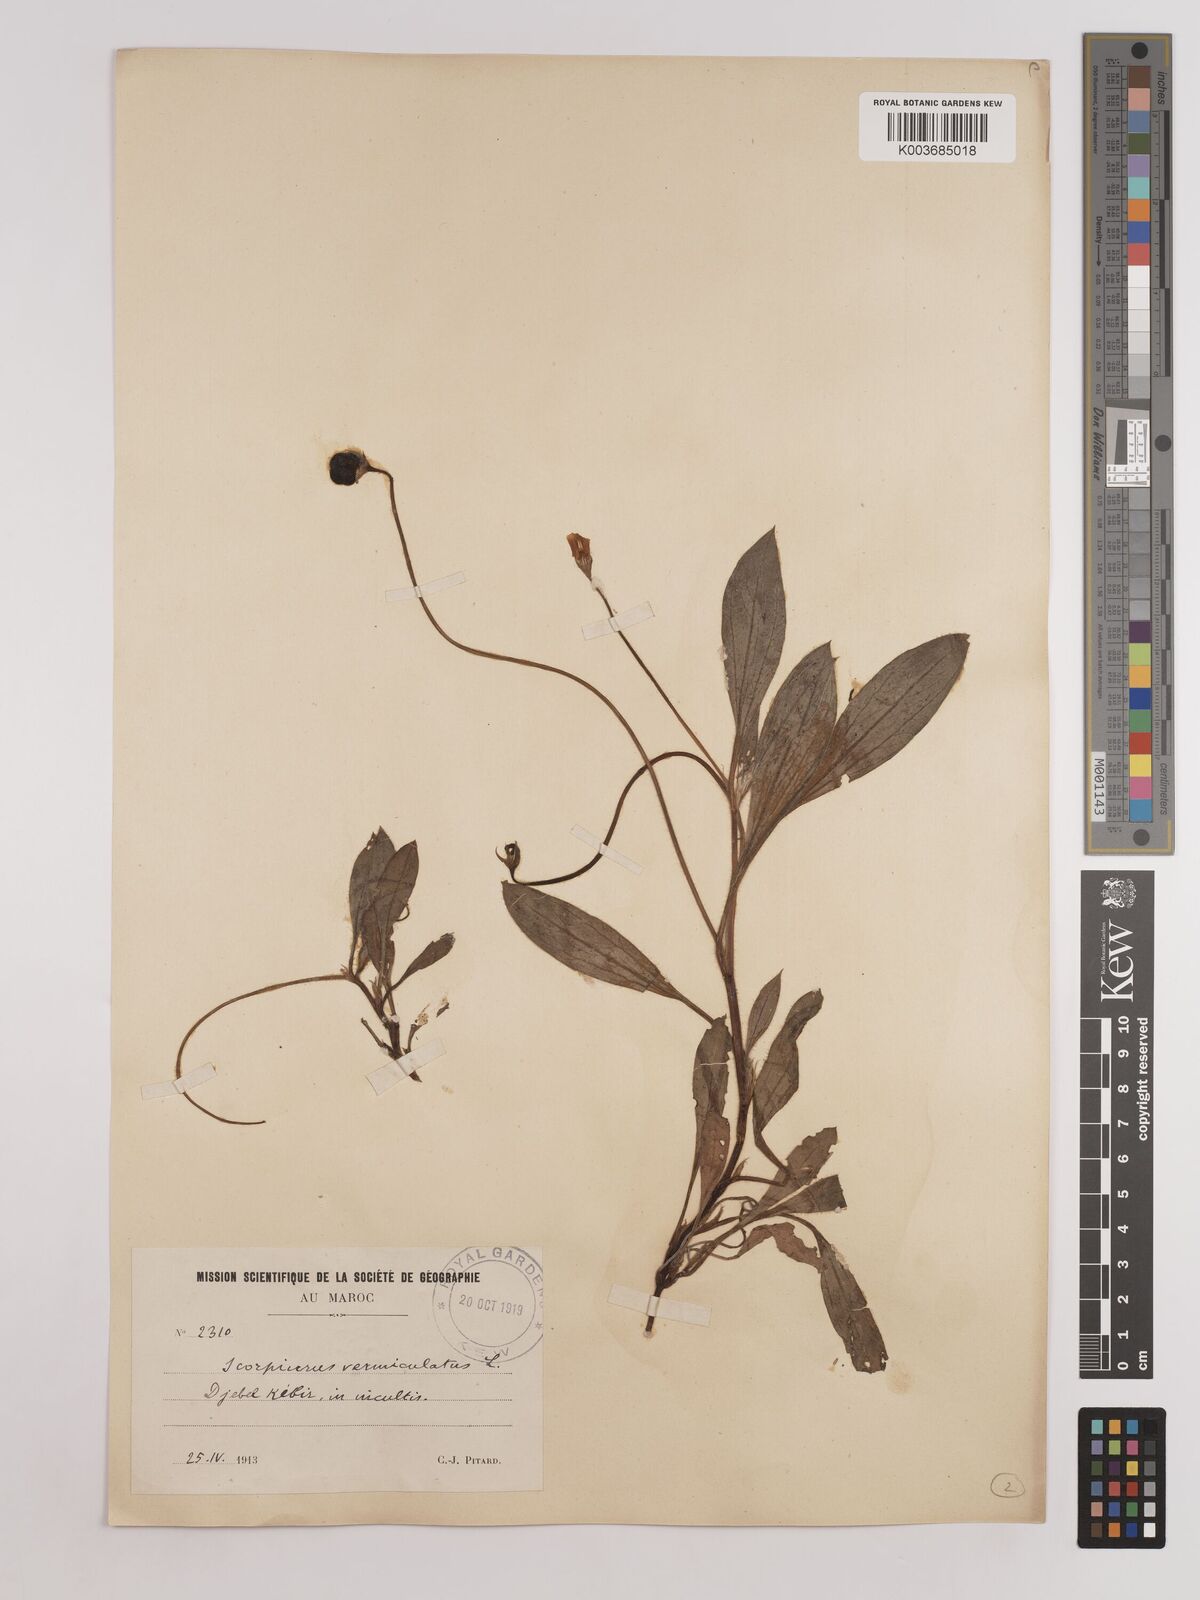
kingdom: Plantae
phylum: Tracheophyta
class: Magnoliopsida
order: Fabales
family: Fabaceae
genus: Scorpiurus
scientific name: Scorpiurus vermiculatus
